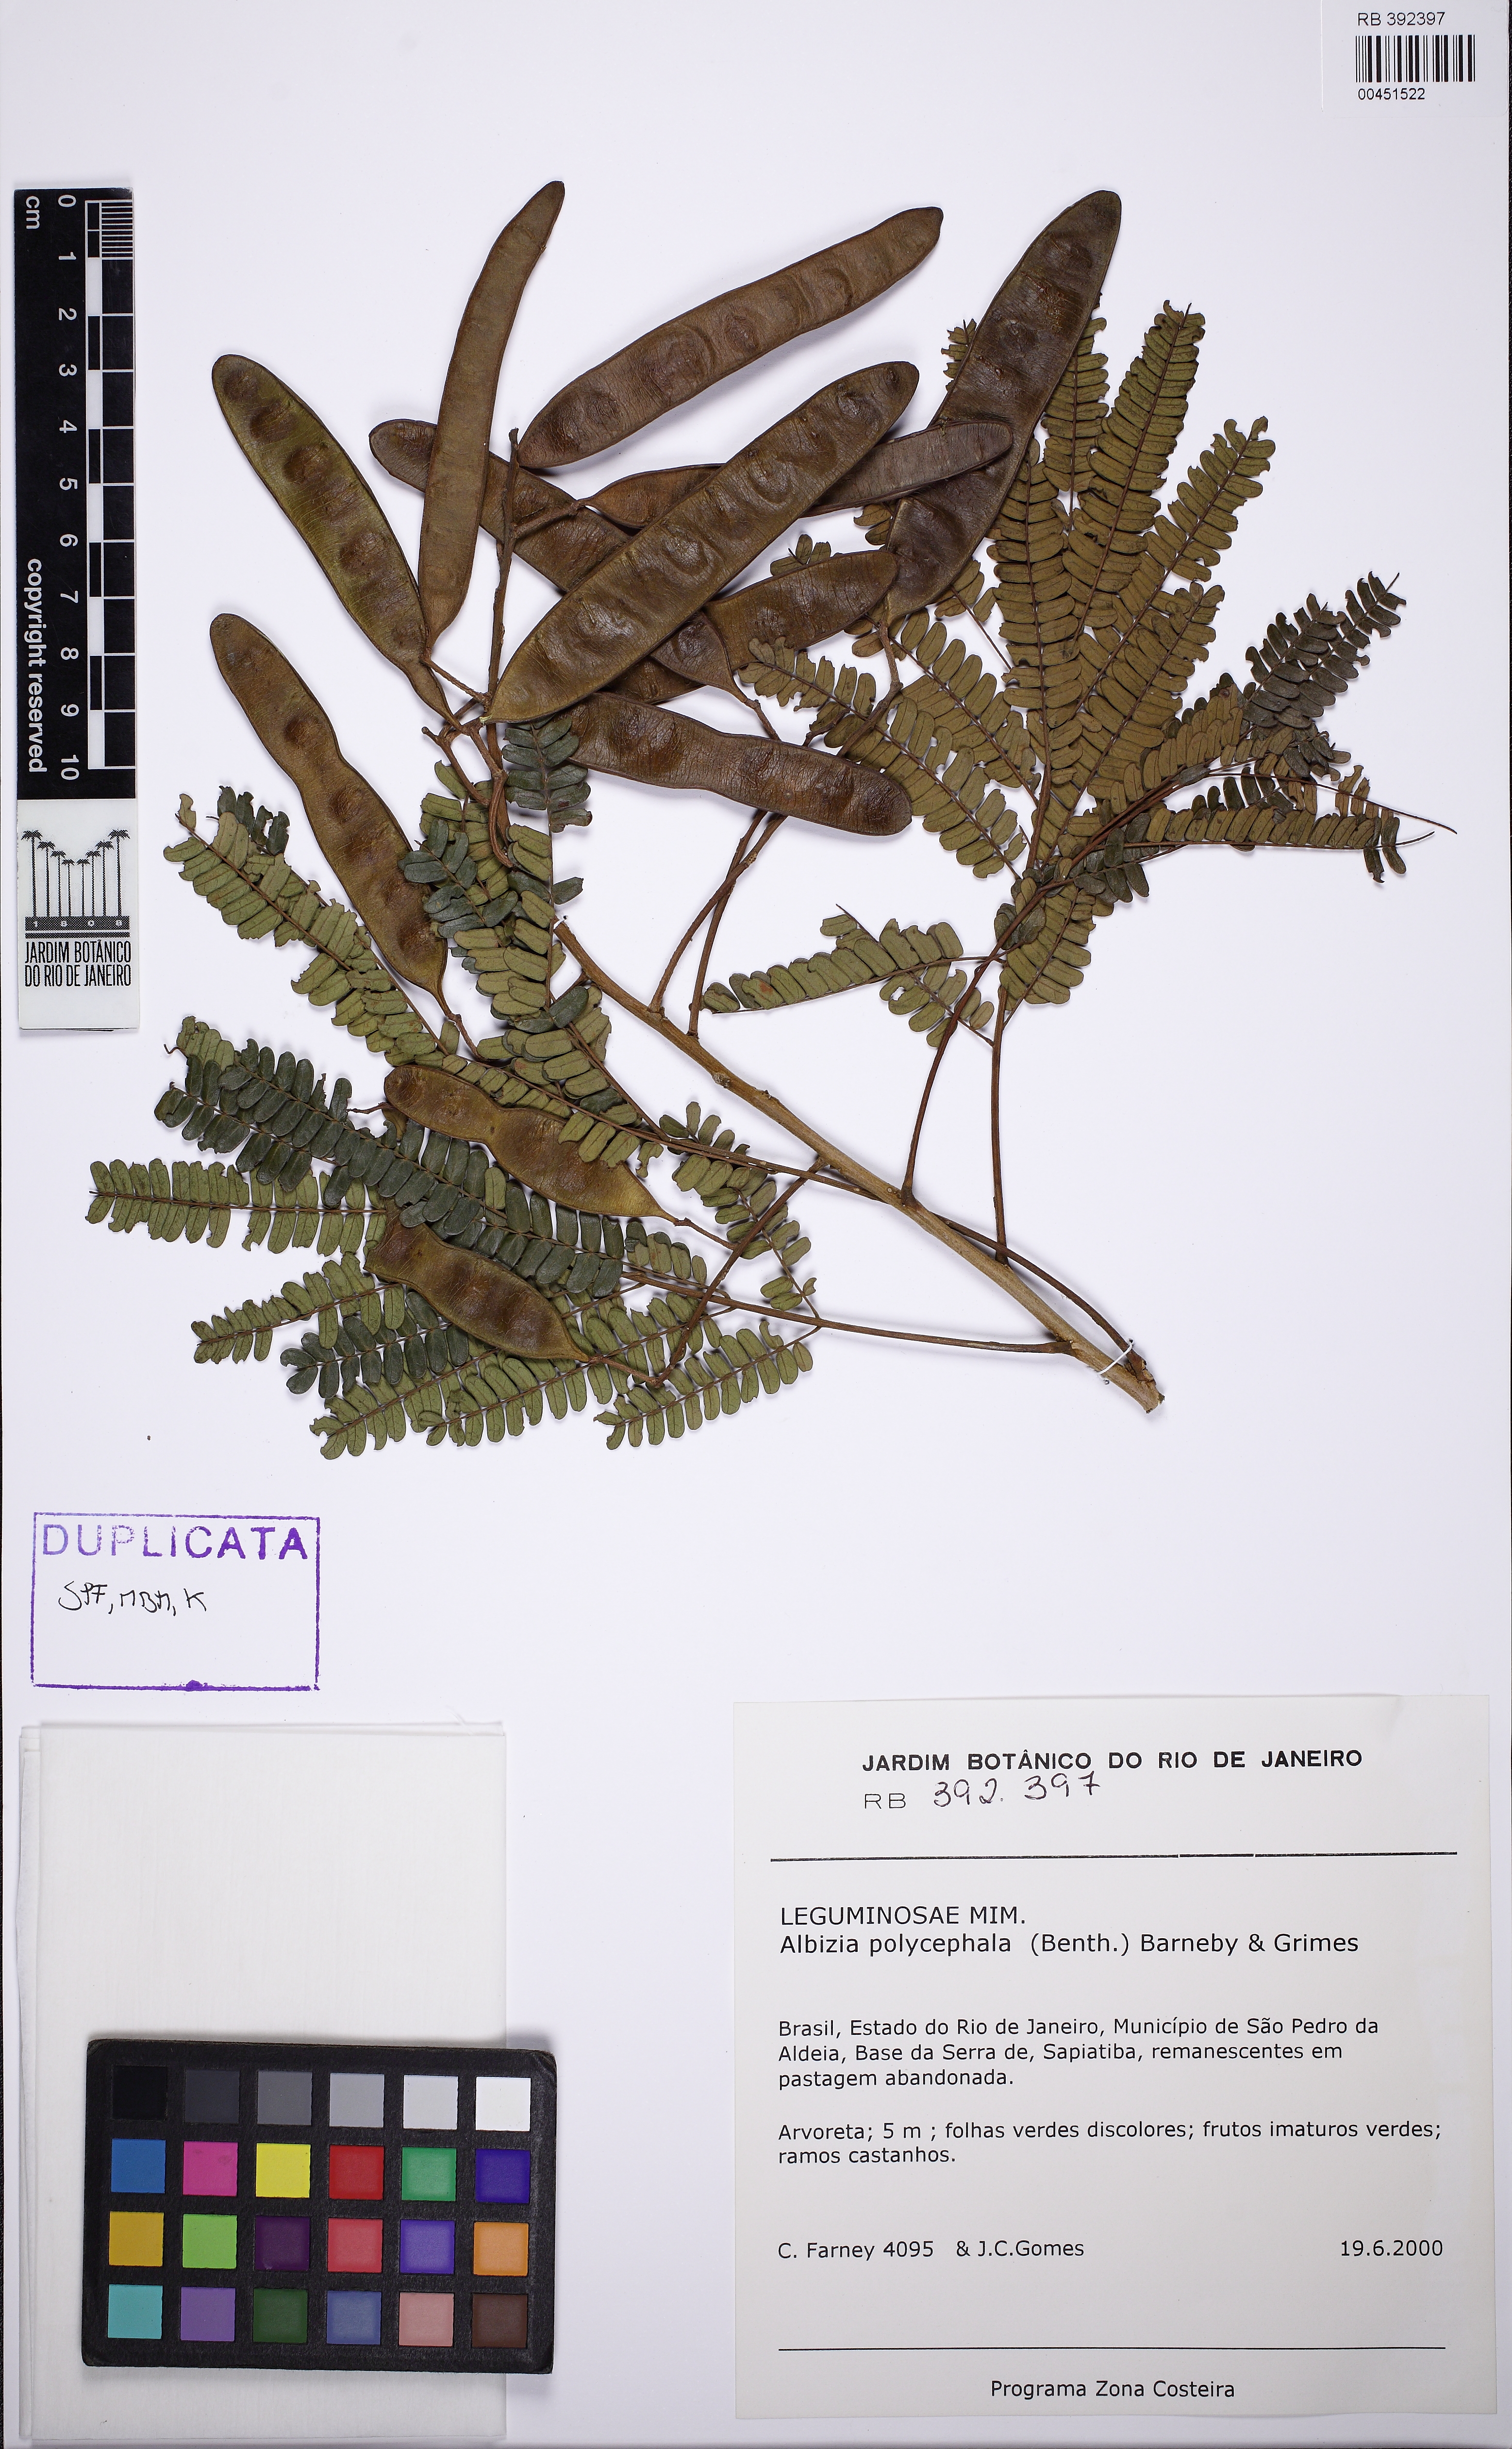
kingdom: Plantae
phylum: Tracheophyta
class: Magnoliopsida
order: Fabales
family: Fabaceae
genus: Albizia
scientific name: Albizia polycephala
